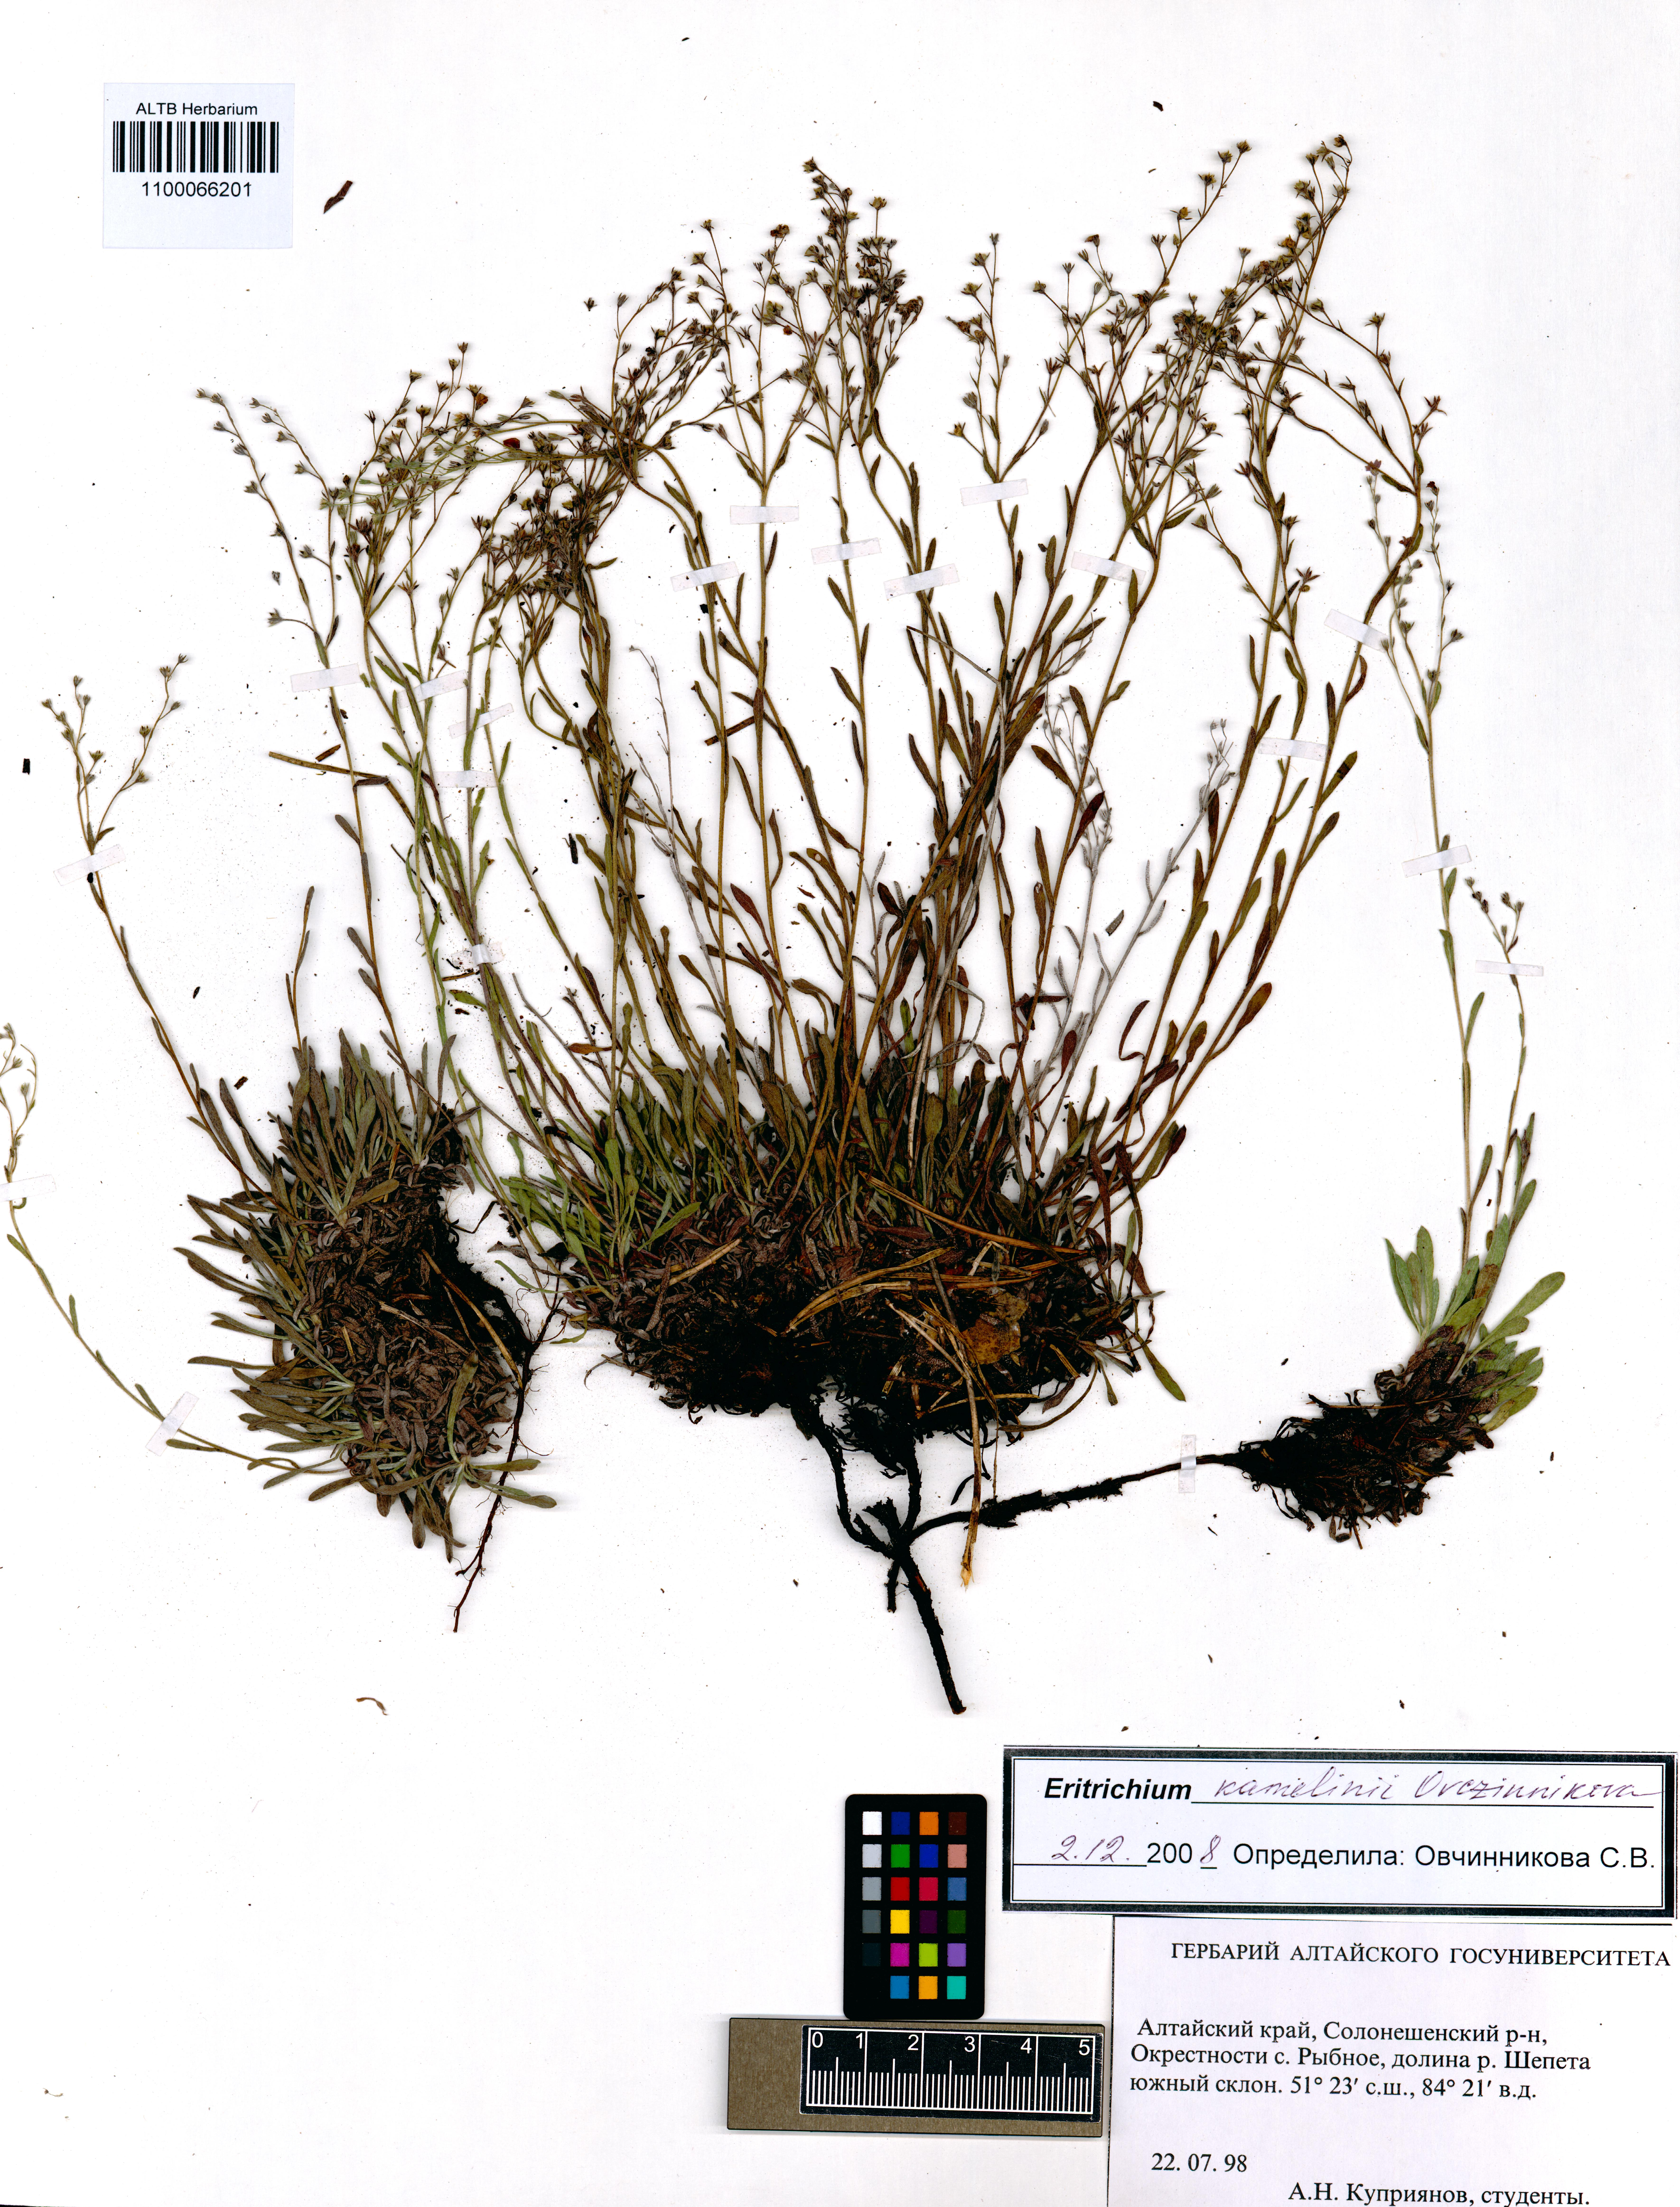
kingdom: Plantae
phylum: Tracheophyta
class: Magnoliopsida
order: Boraginales
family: Boraginaceae
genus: Eritrichium
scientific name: Eritrichium kamelinii
